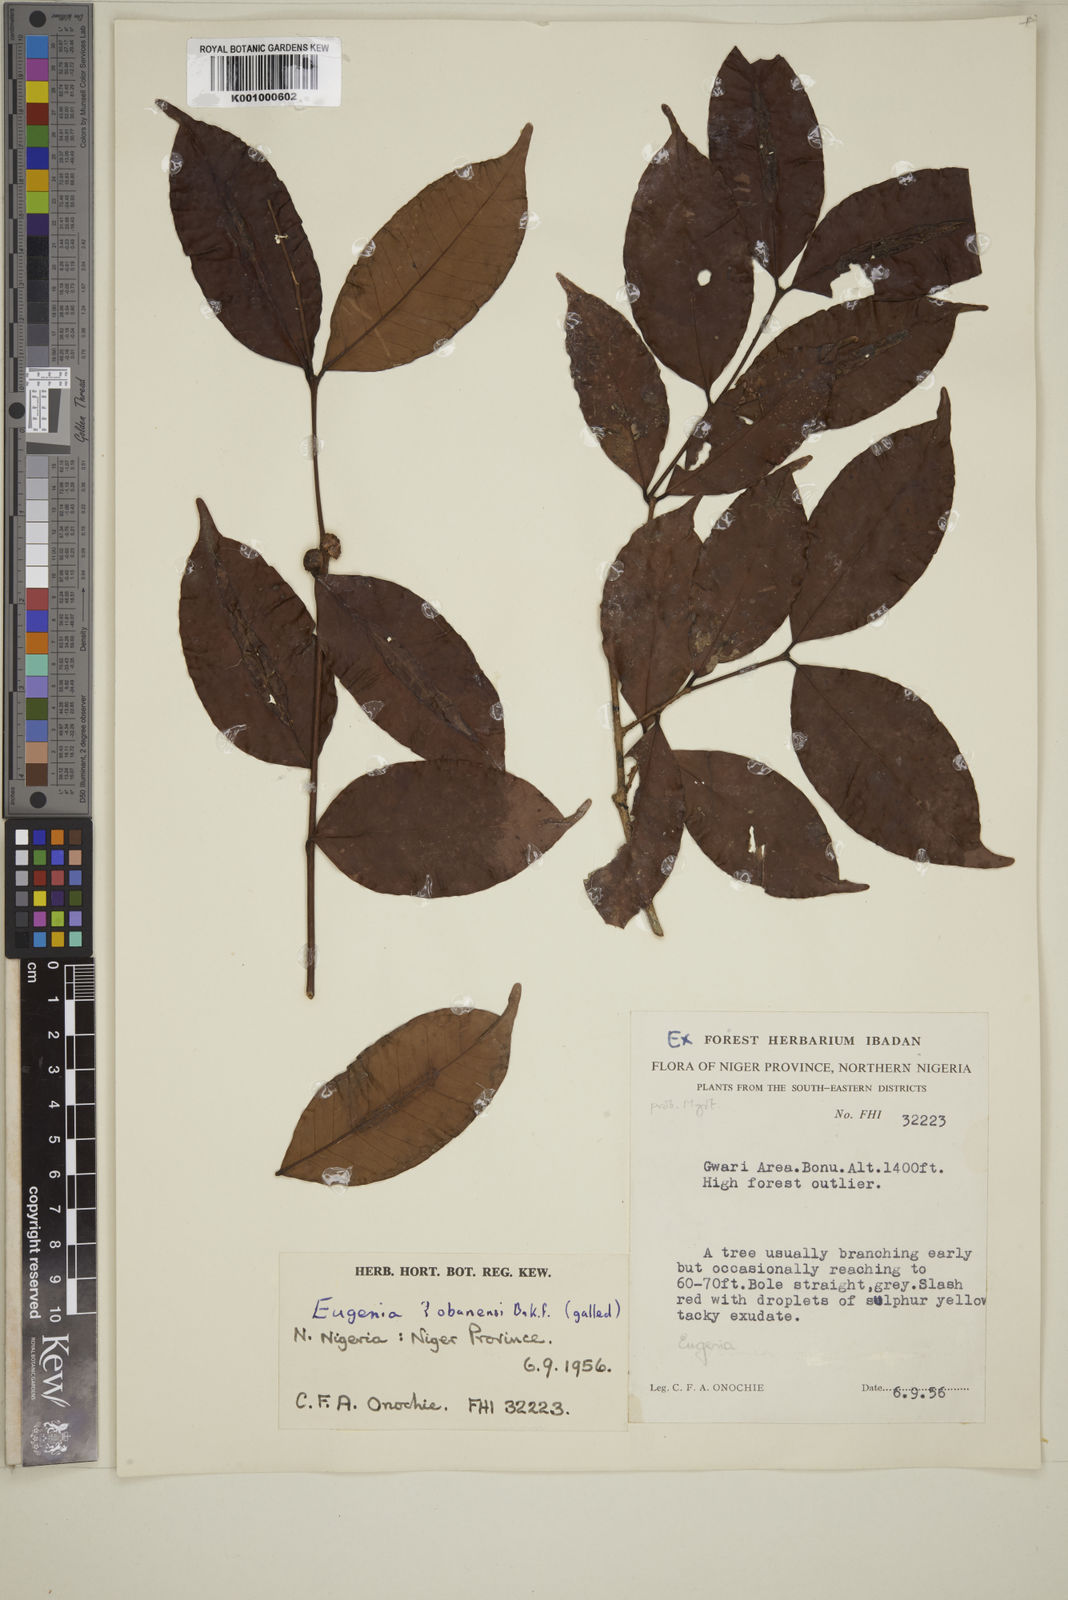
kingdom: Plantae
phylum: Tracheophyta
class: Magnoliopsida
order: Myrtales
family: Myrtaceae
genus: Eugenia
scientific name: Eugenia obanensis
